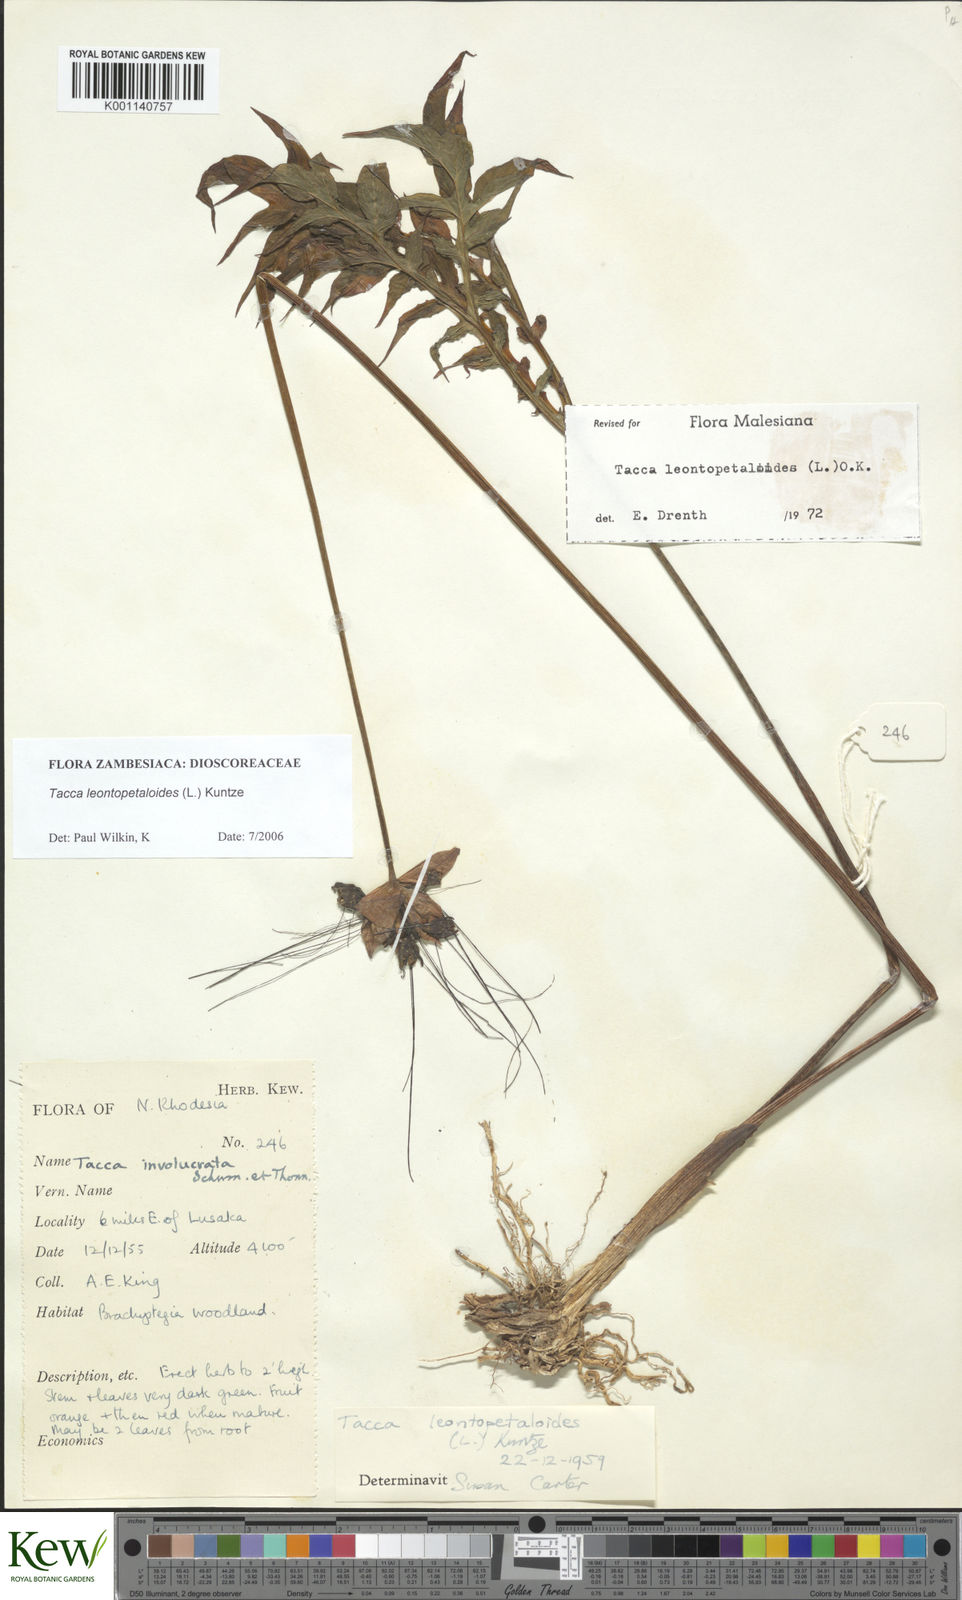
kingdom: Plantae
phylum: Tracheophyta
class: Liliopsida
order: Dioscoreales
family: Dioscoreaceae
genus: Tacca
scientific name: Tacca leontopetaloides
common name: Arrowroot
